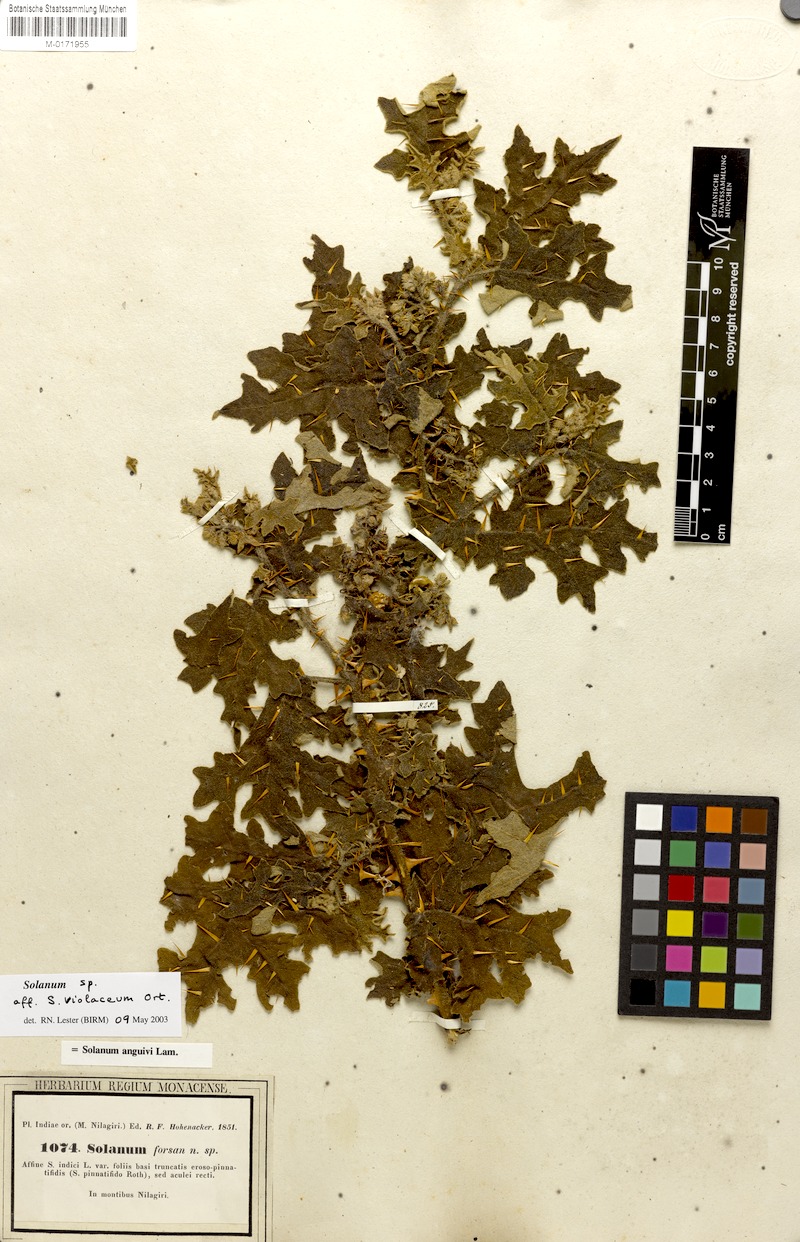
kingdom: Plantae
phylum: Tracheophyta
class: Magnoliopsida
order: Solanales
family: Solanaceae
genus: Solanum
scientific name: Solanum violaceum
